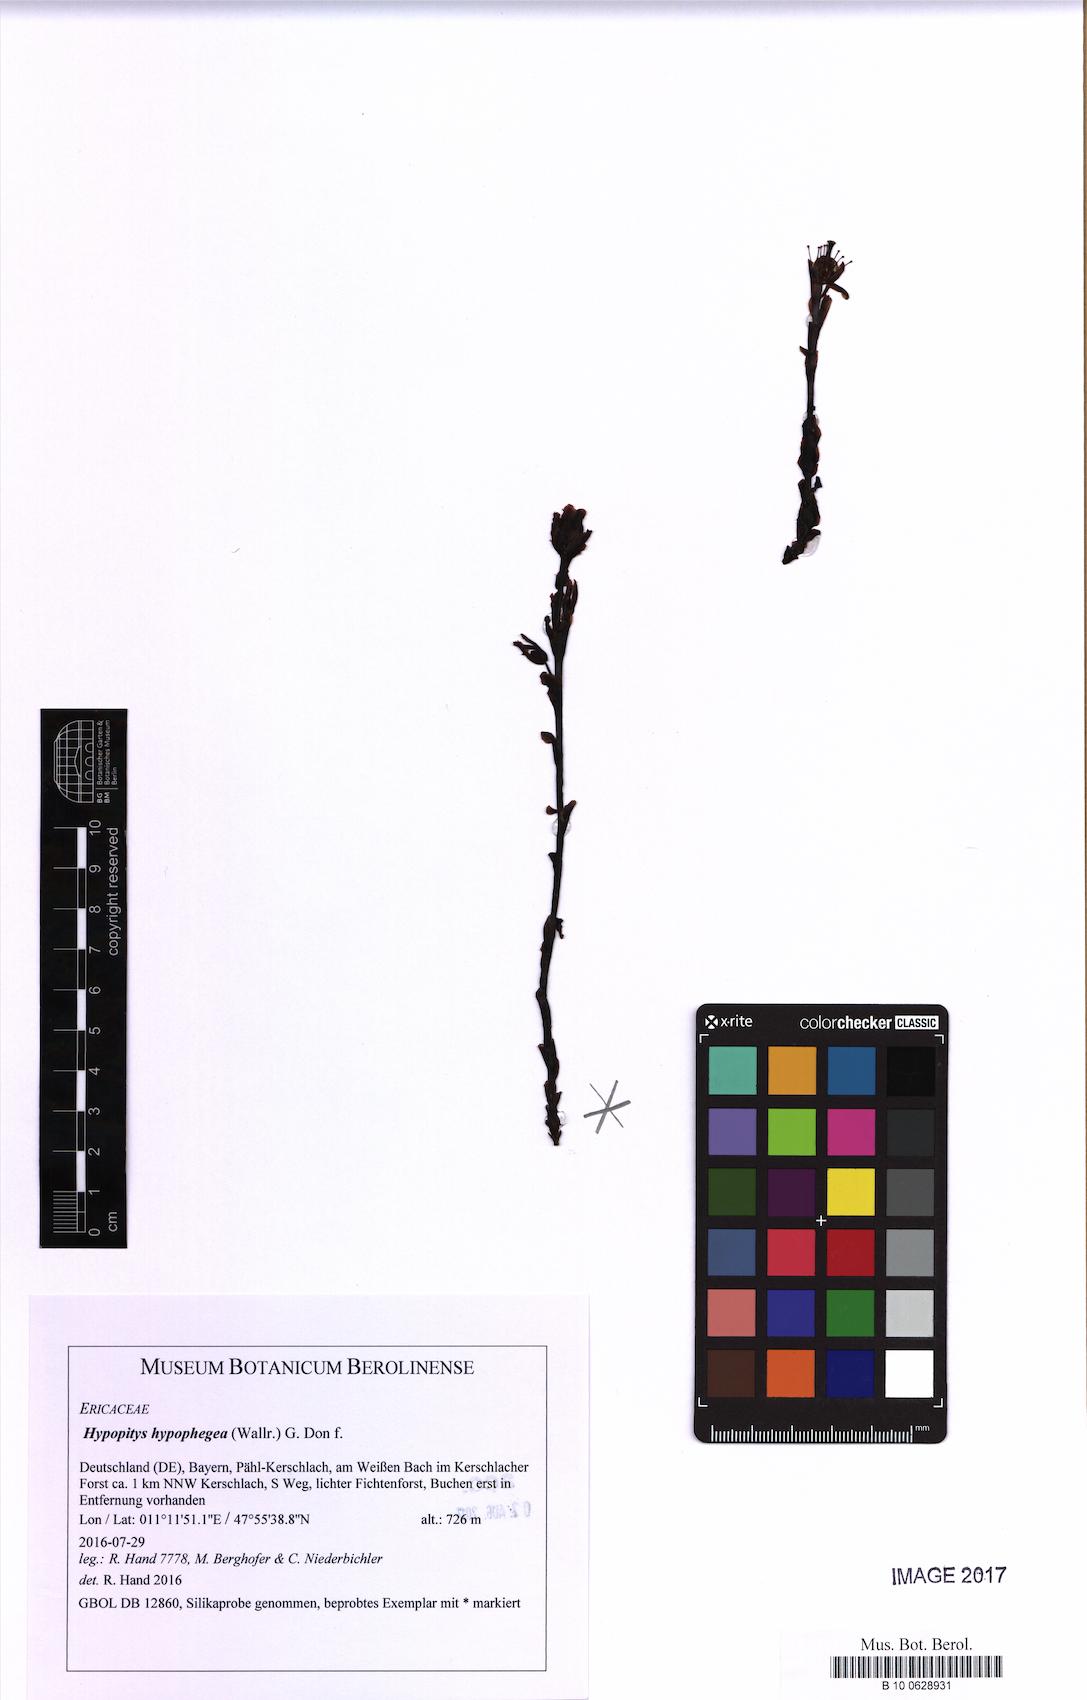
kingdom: Plantae
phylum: Tracheophyta
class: Magnoliopsida
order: Ericales
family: Ericaceae
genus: Hypopitys
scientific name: Hypopitys hypophegea
